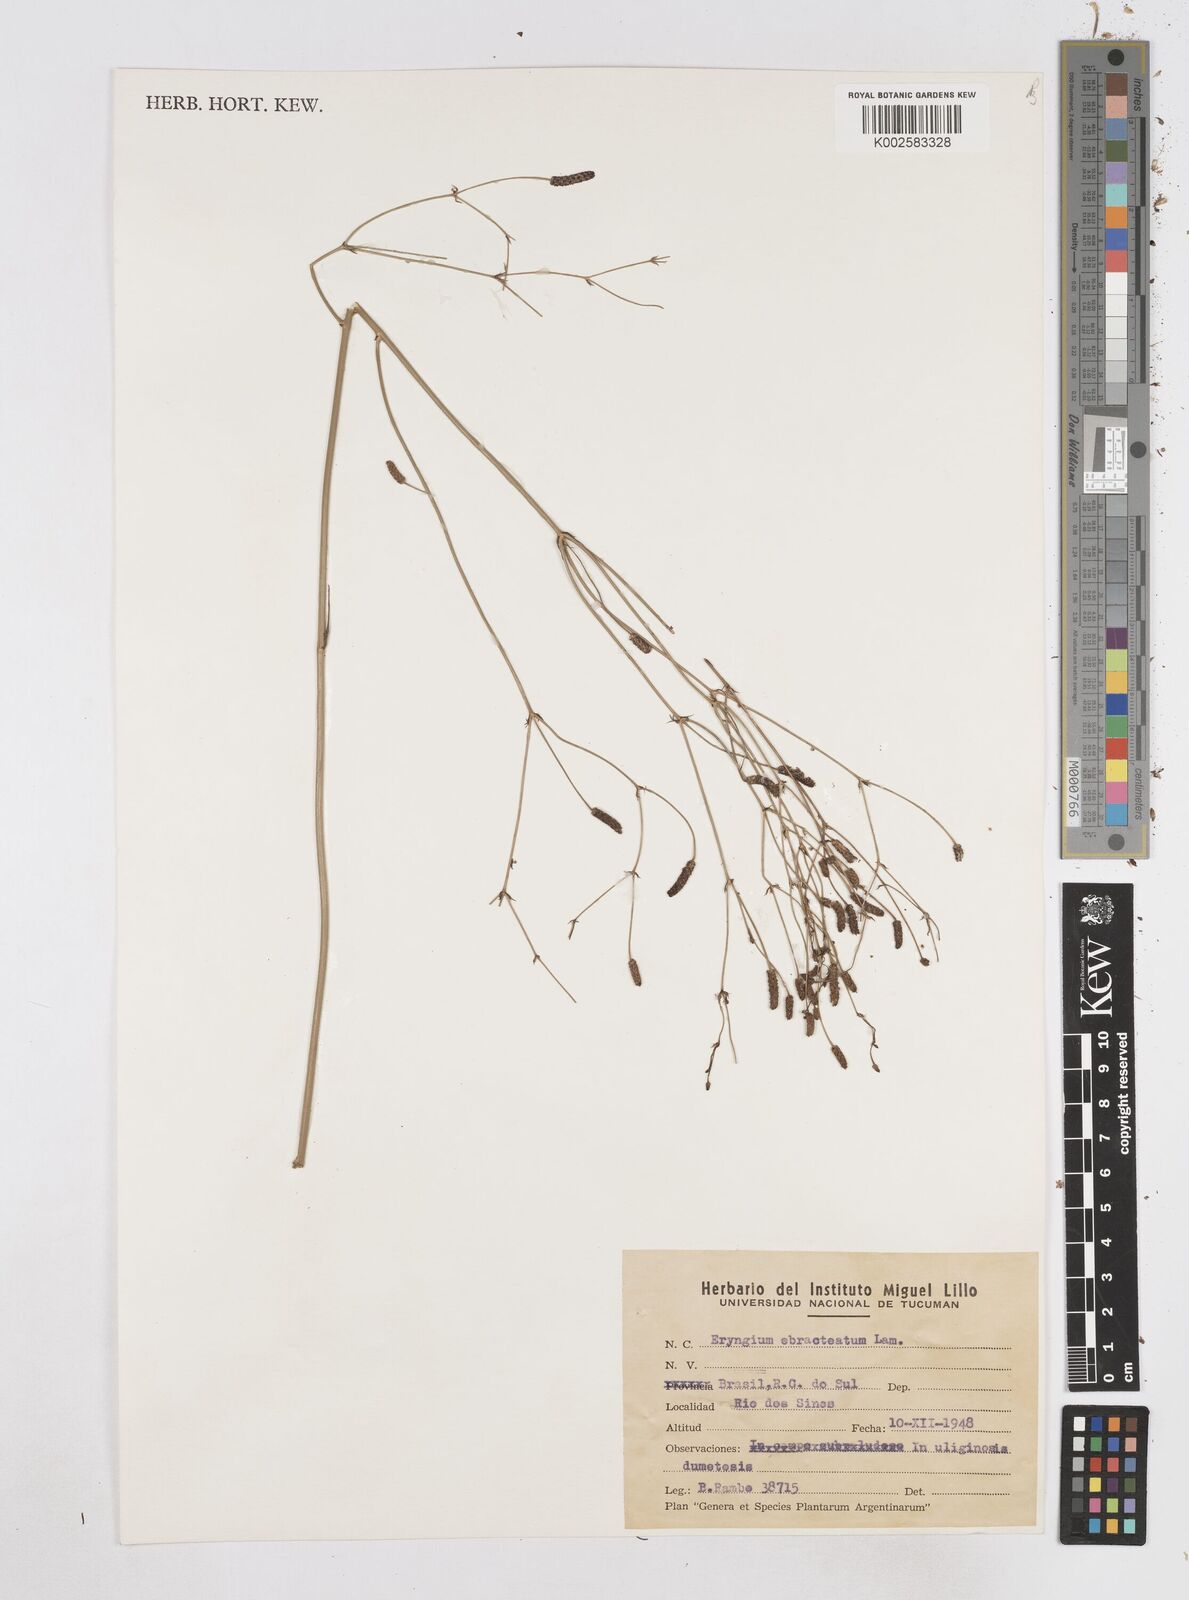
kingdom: Plantae
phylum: Tracheophyta
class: Magnoliopsida
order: Apiales
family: Apiaceae
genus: Eryngium
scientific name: Eryngium ebracteatum
